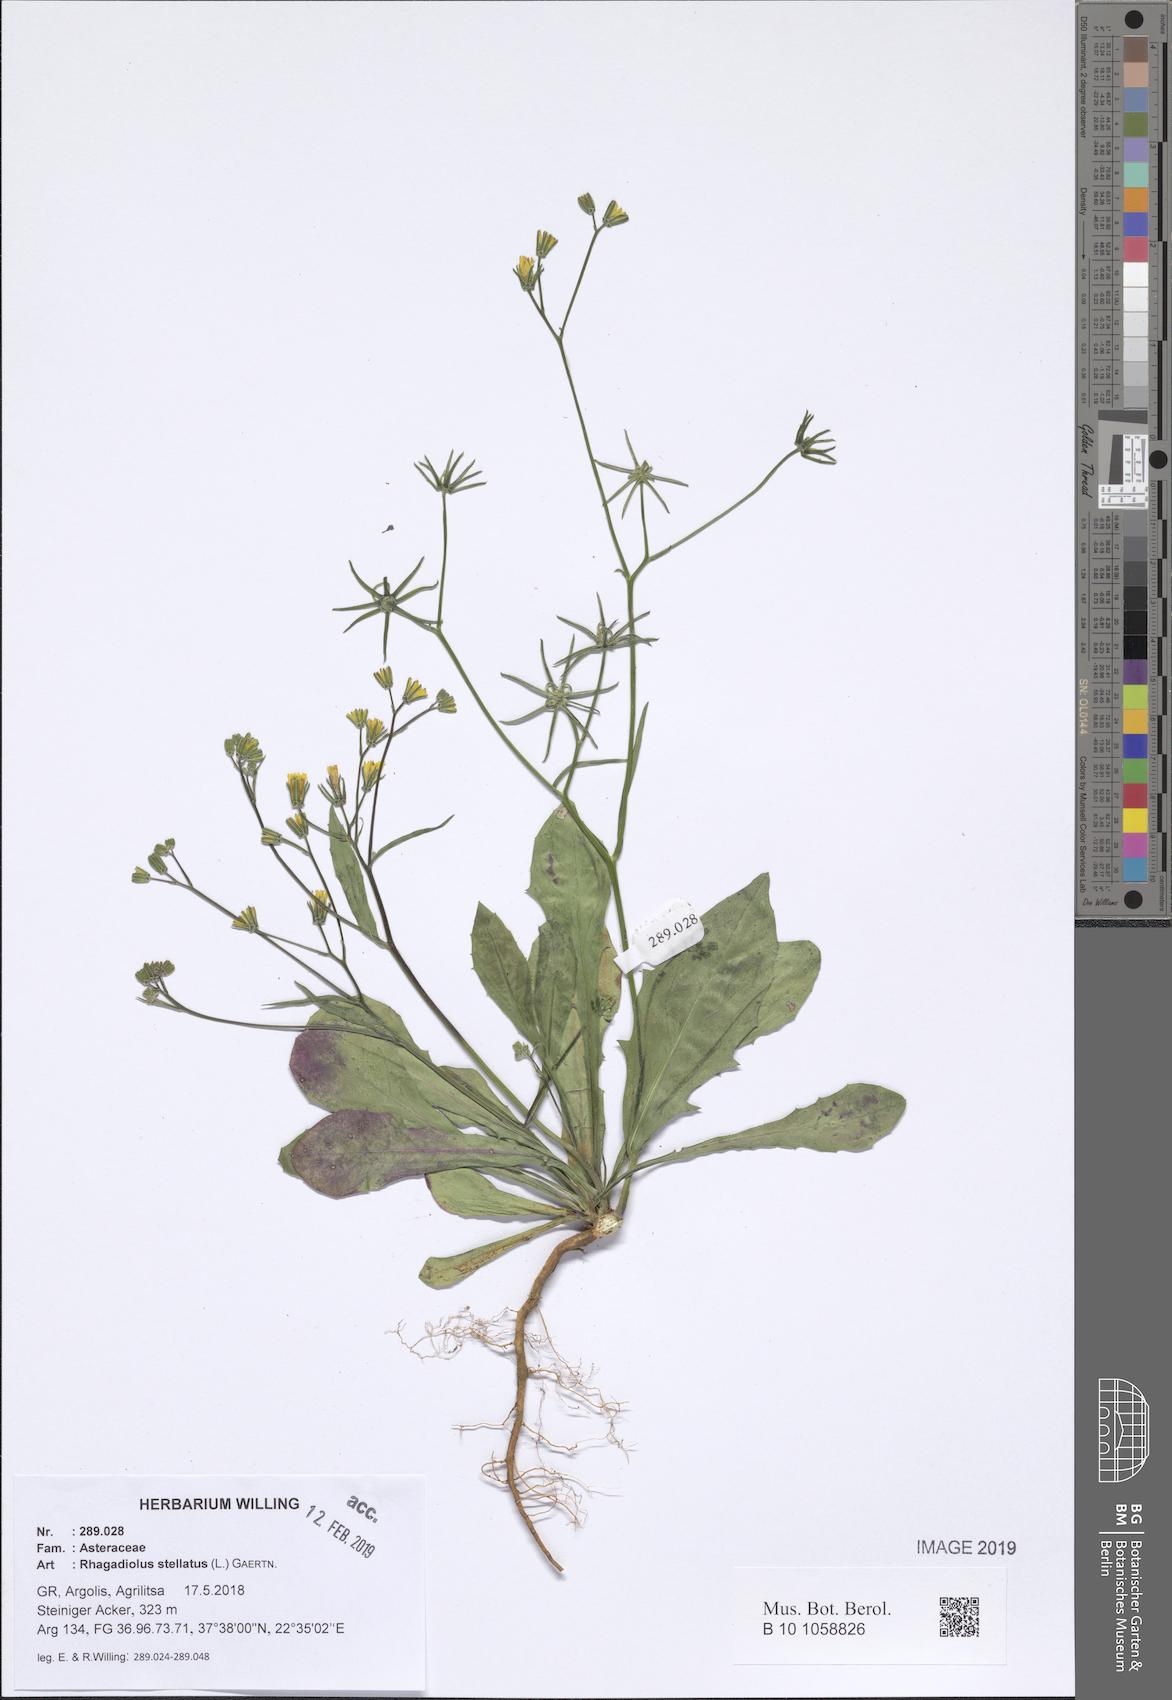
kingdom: Plantae
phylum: Tracheophyta
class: Magnoliopsida
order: Asterales
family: Asteraceae
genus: Rhagadiolus
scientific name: Rhagadiolus stellatus
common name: Star hawkbit
